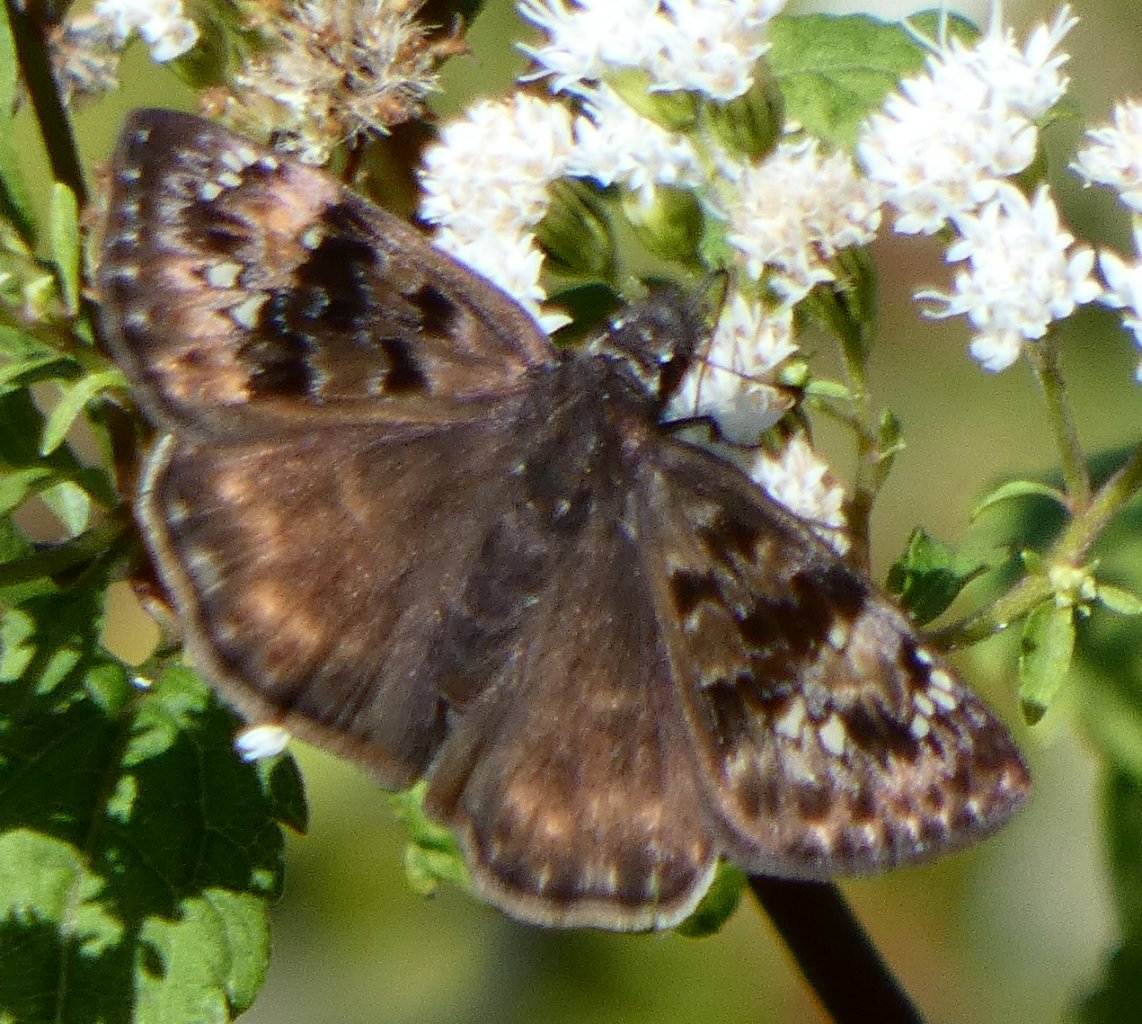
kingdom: Animalia
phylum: Arthropoda
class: Insecta
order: Lepidoptera
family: Hesperiidae
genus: Gesta
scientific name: Gesta
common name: Wild Indigo Duskywing
